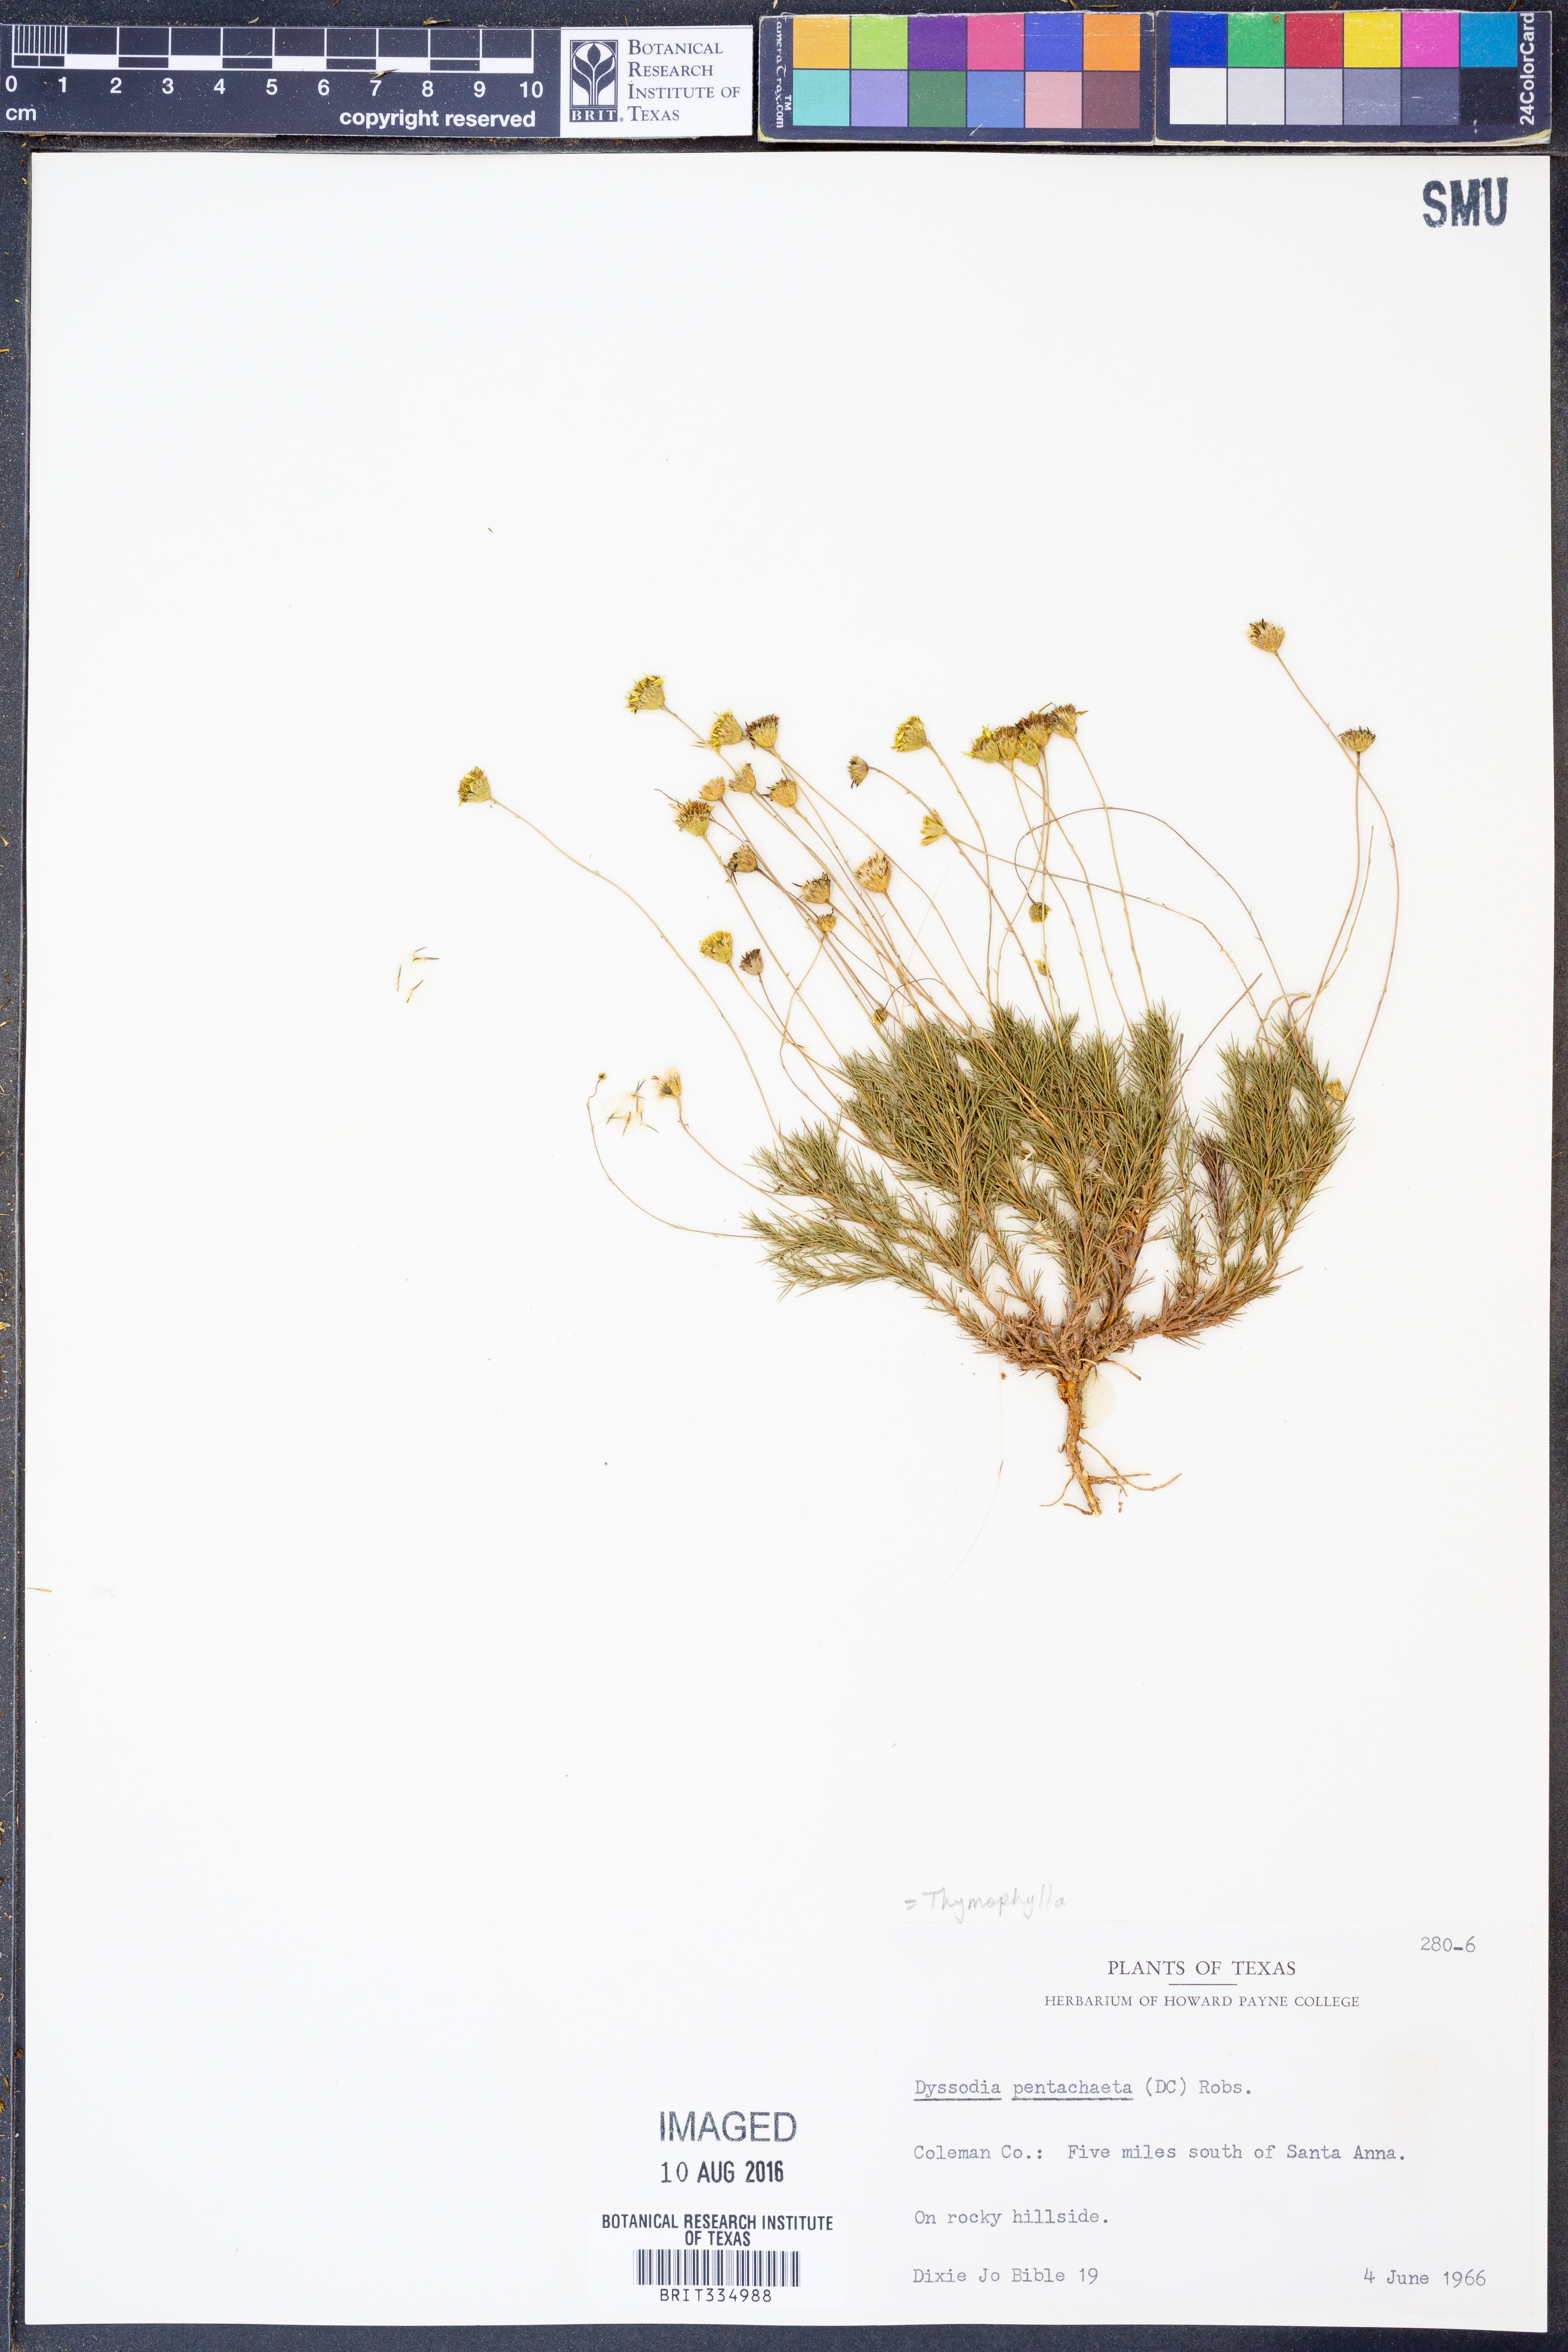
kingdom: Plantae
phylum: Tracheophyta
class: Magnoliopsida
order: Asterales
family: Asteraceae
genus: Thymophylla
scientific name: Thymophylla pentachaeta
